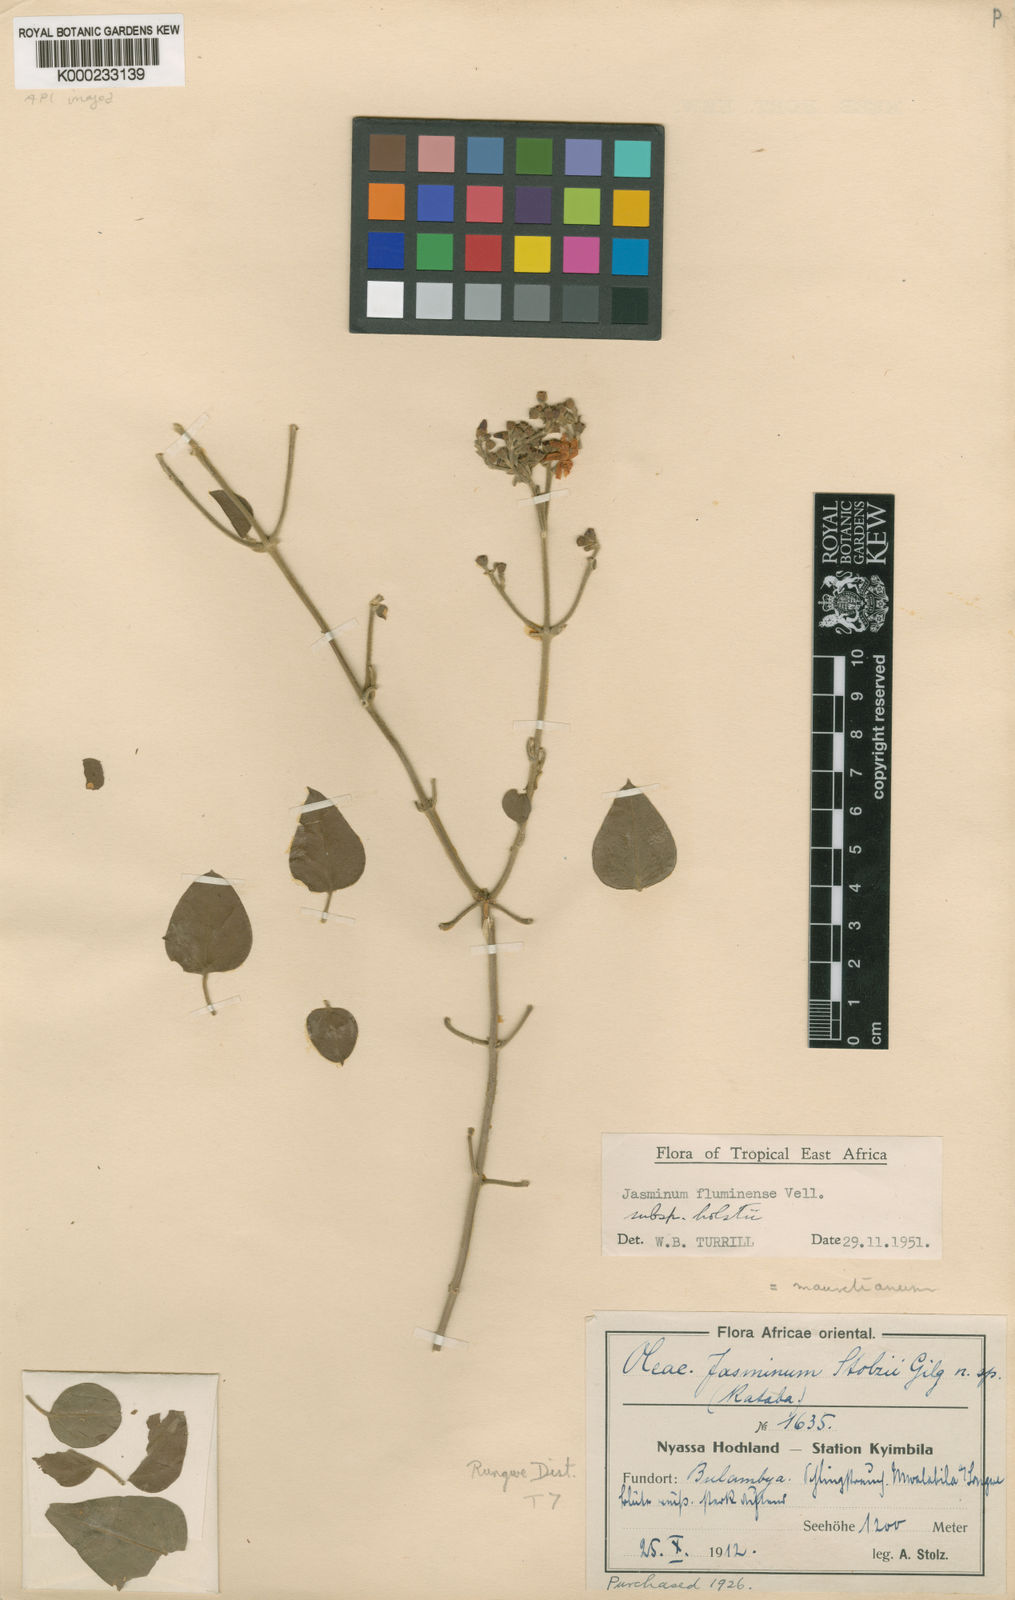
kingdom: Plantae
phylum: Tracheophyta
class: Magnoliopsida
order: Lamiales
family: Oleaceae
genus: Jasminum
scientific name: Jasminum fluminense
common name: Brazilian jasmine
